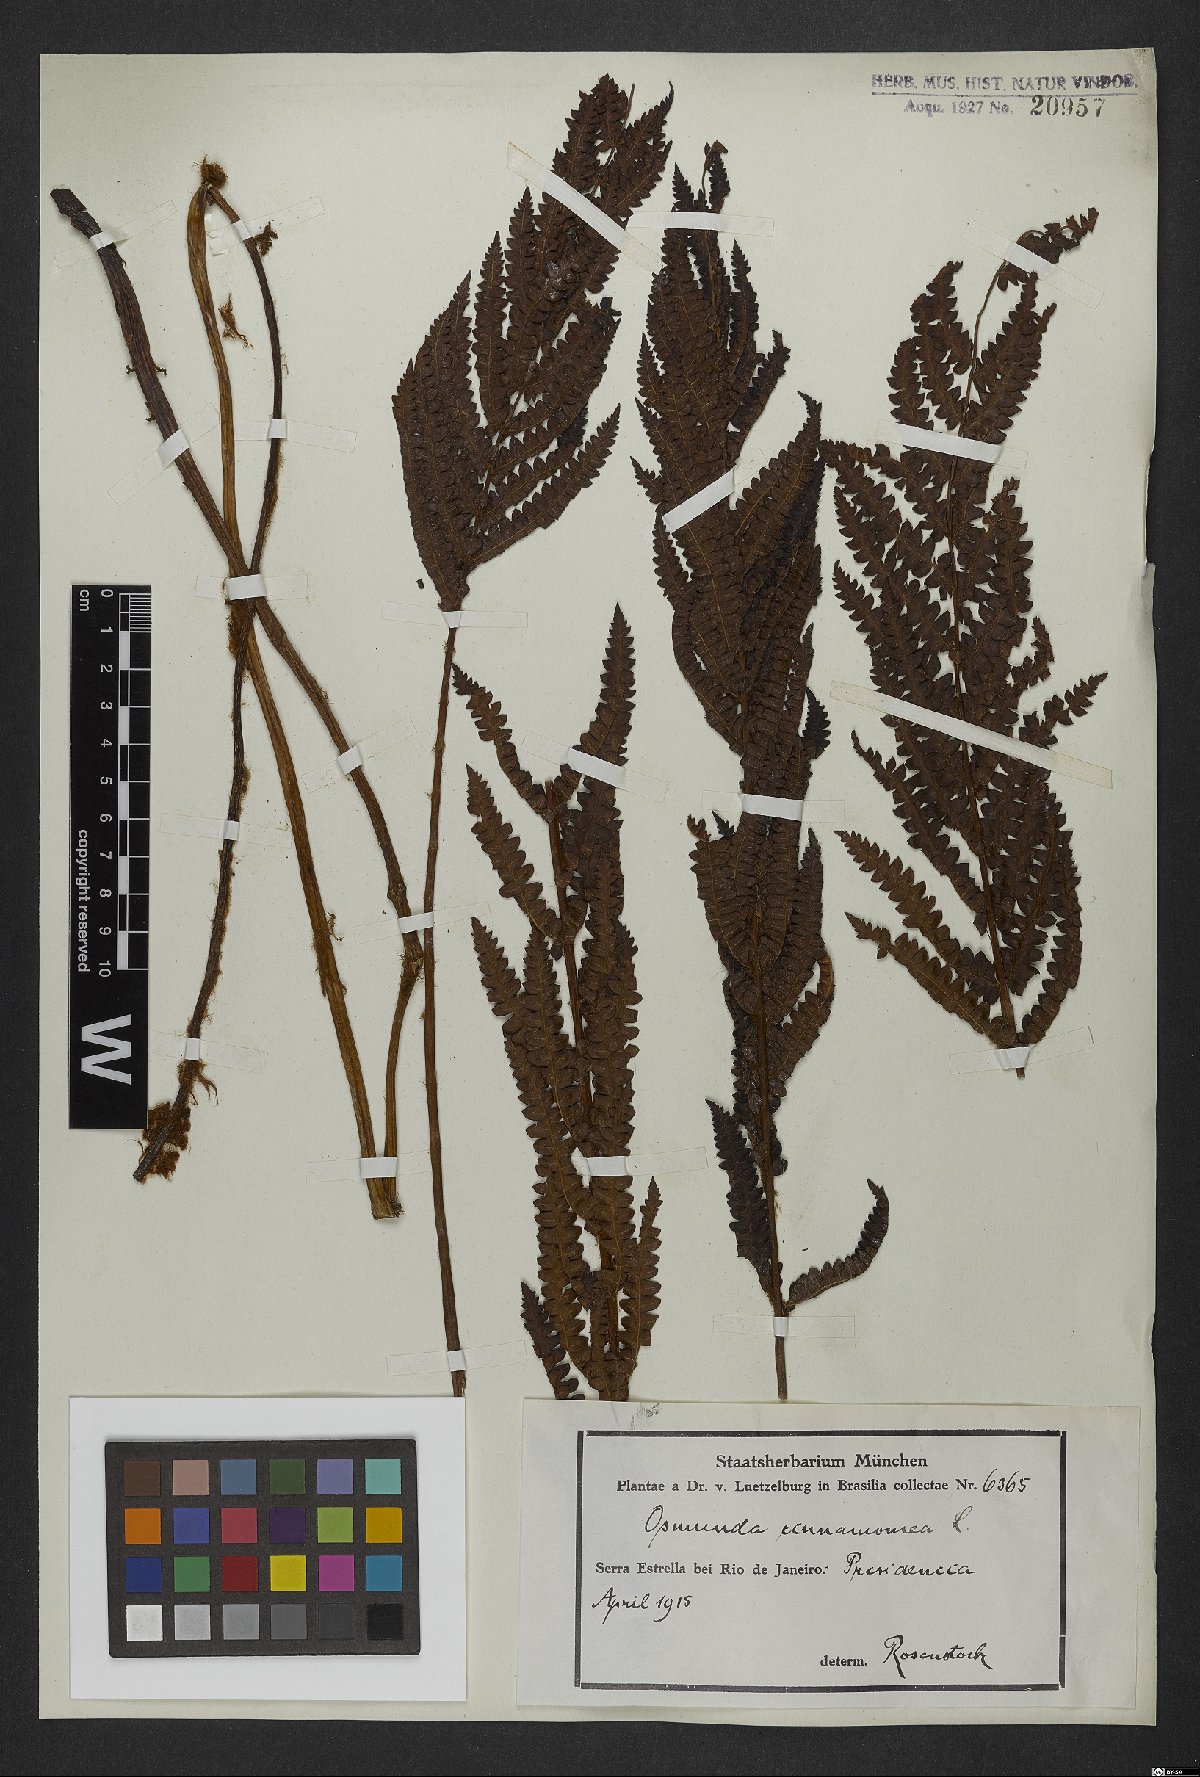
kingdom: Plantae
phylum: Tracheophyta
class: Polypodiopsida
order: Osmundales
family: Osmundaceae
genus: Osmundastrum
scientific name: Osmundastrum cinnamomeum
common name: Cinnamon fern
